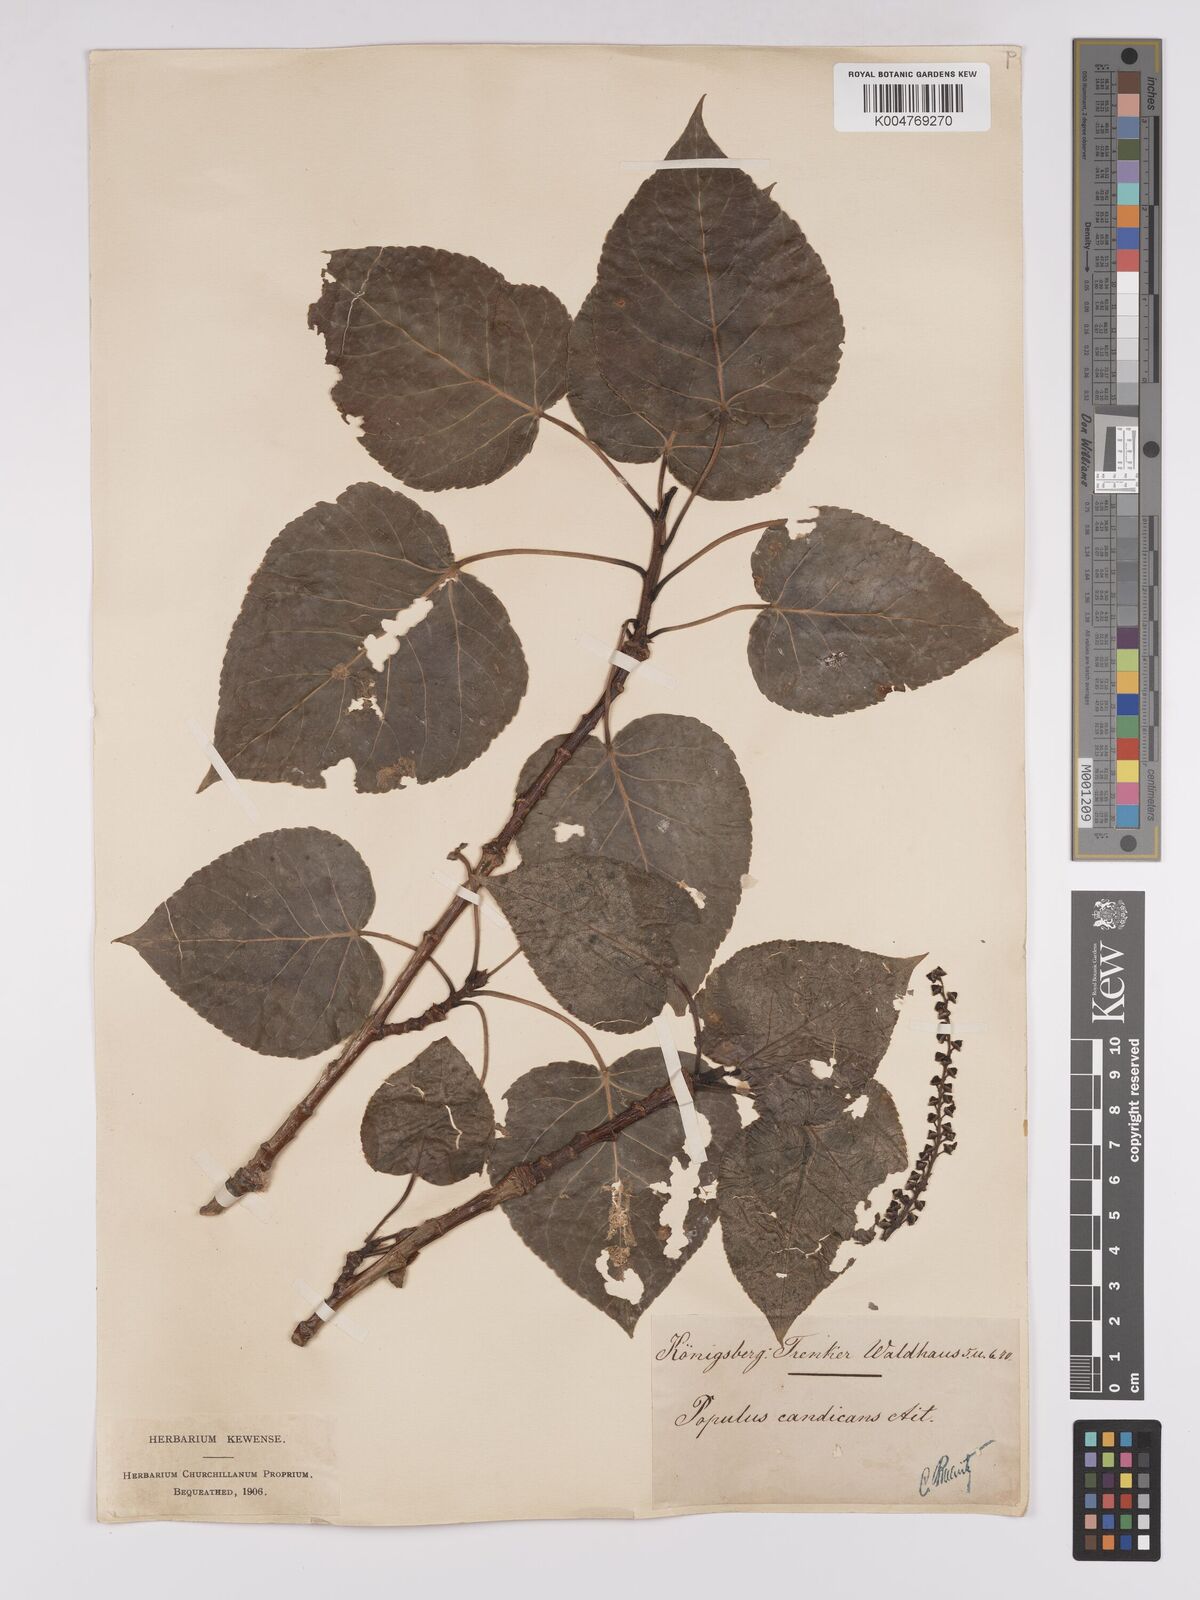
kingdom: Plantae
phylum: Tracheophyta
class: Magnoliopsida
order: Malpighiales
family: Salicaceae
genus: Populus
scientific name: Populus jackii
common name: Balm-of-gilead
